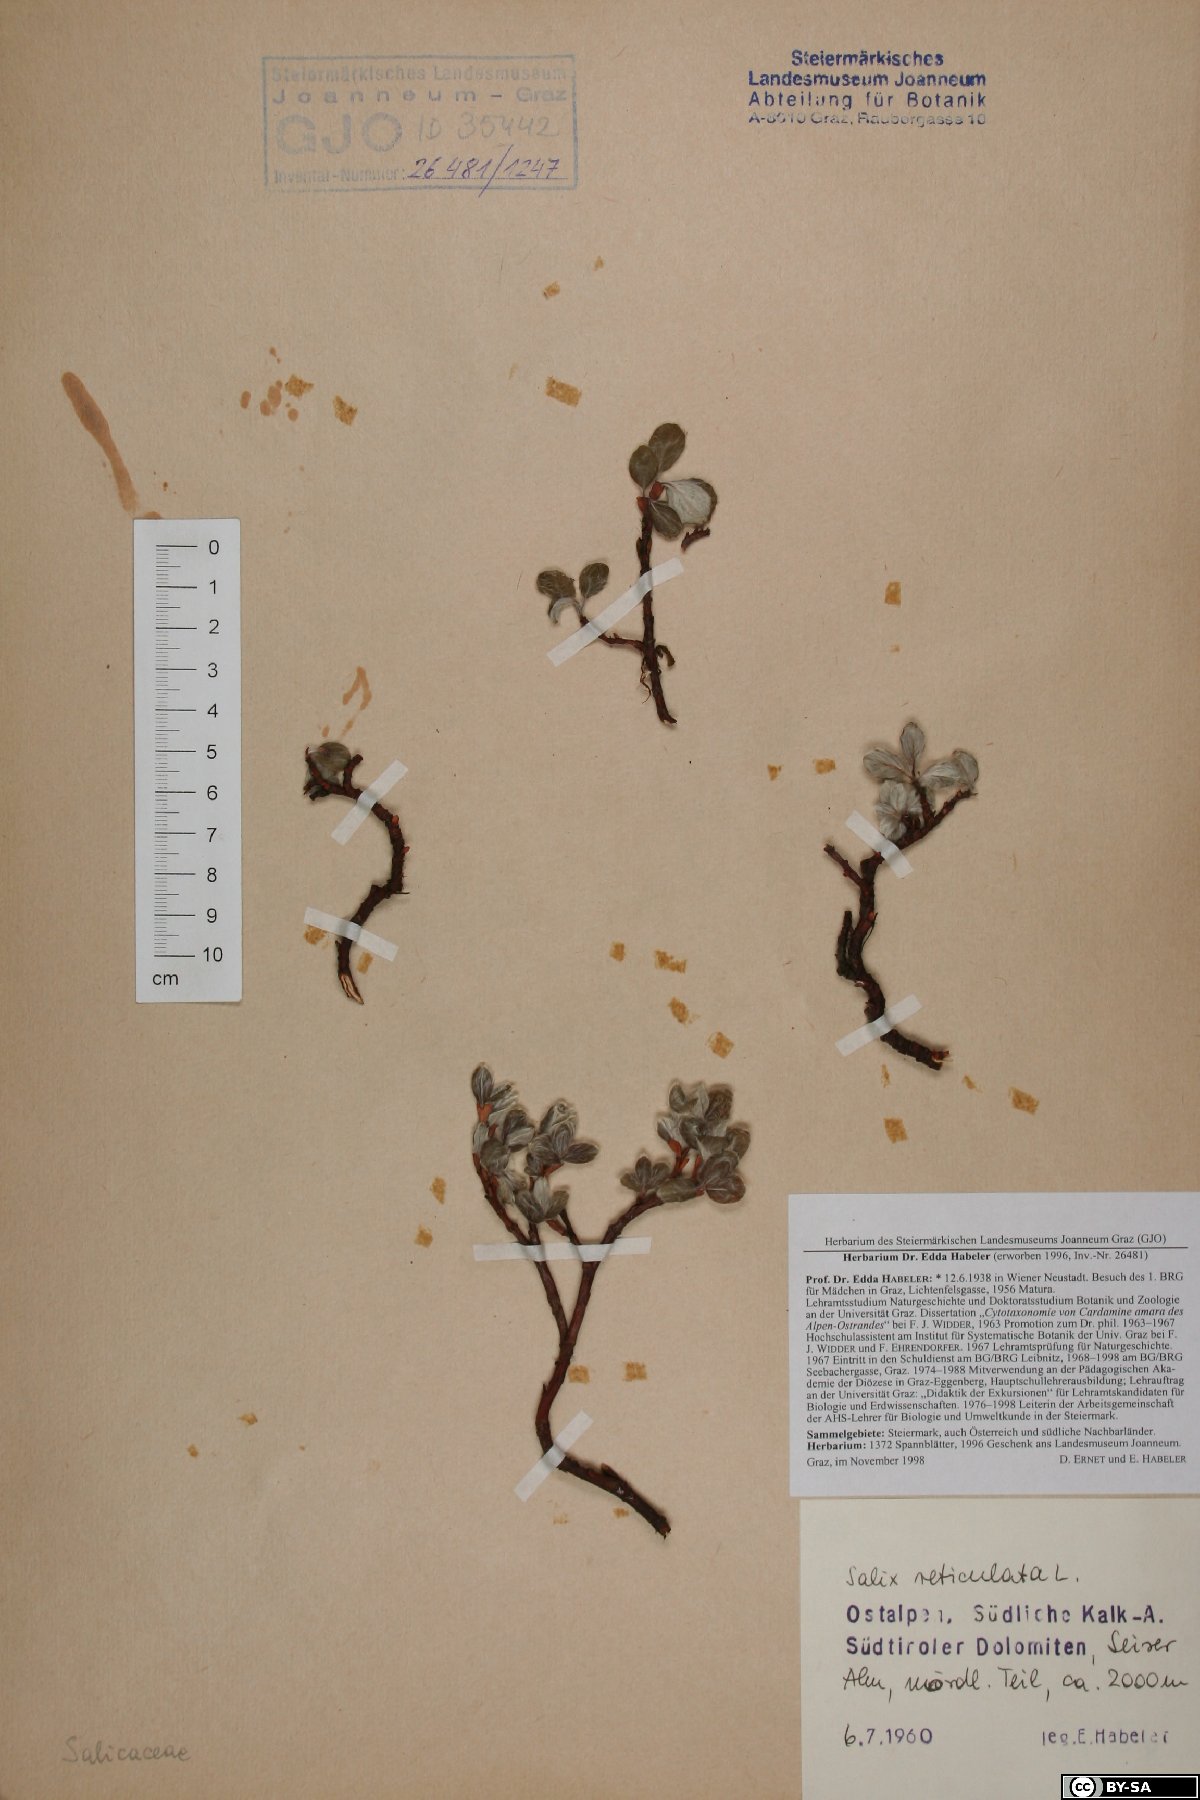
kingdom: Plantae
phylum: Tracheophyta
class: Magnoliopsida
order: Malpighiales
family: Salicaceae
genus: Salix
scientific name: Salix reticulata
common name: Net-leaved willow
